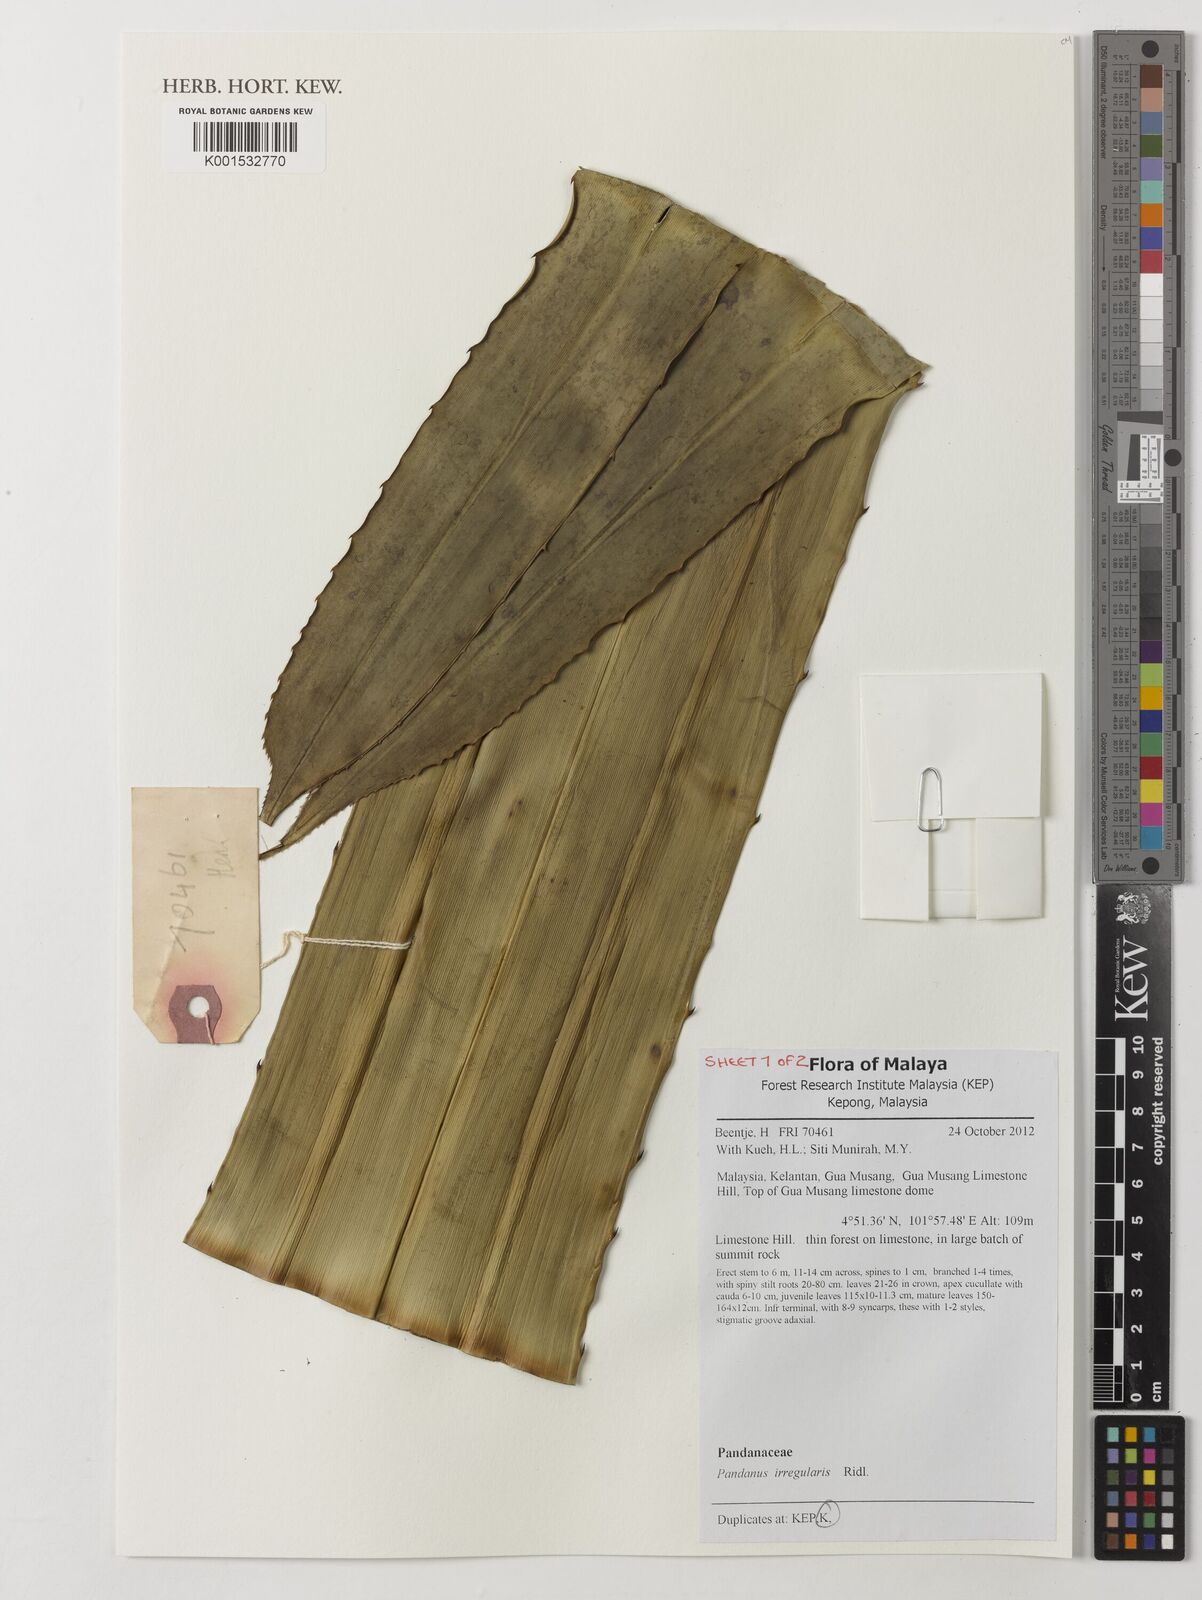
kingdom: Plantae
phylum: Tracheophyta
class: Liliopsida
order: Pandanales
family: Pandanaceae
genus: Pandanus
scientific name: Pandanus irregularis
